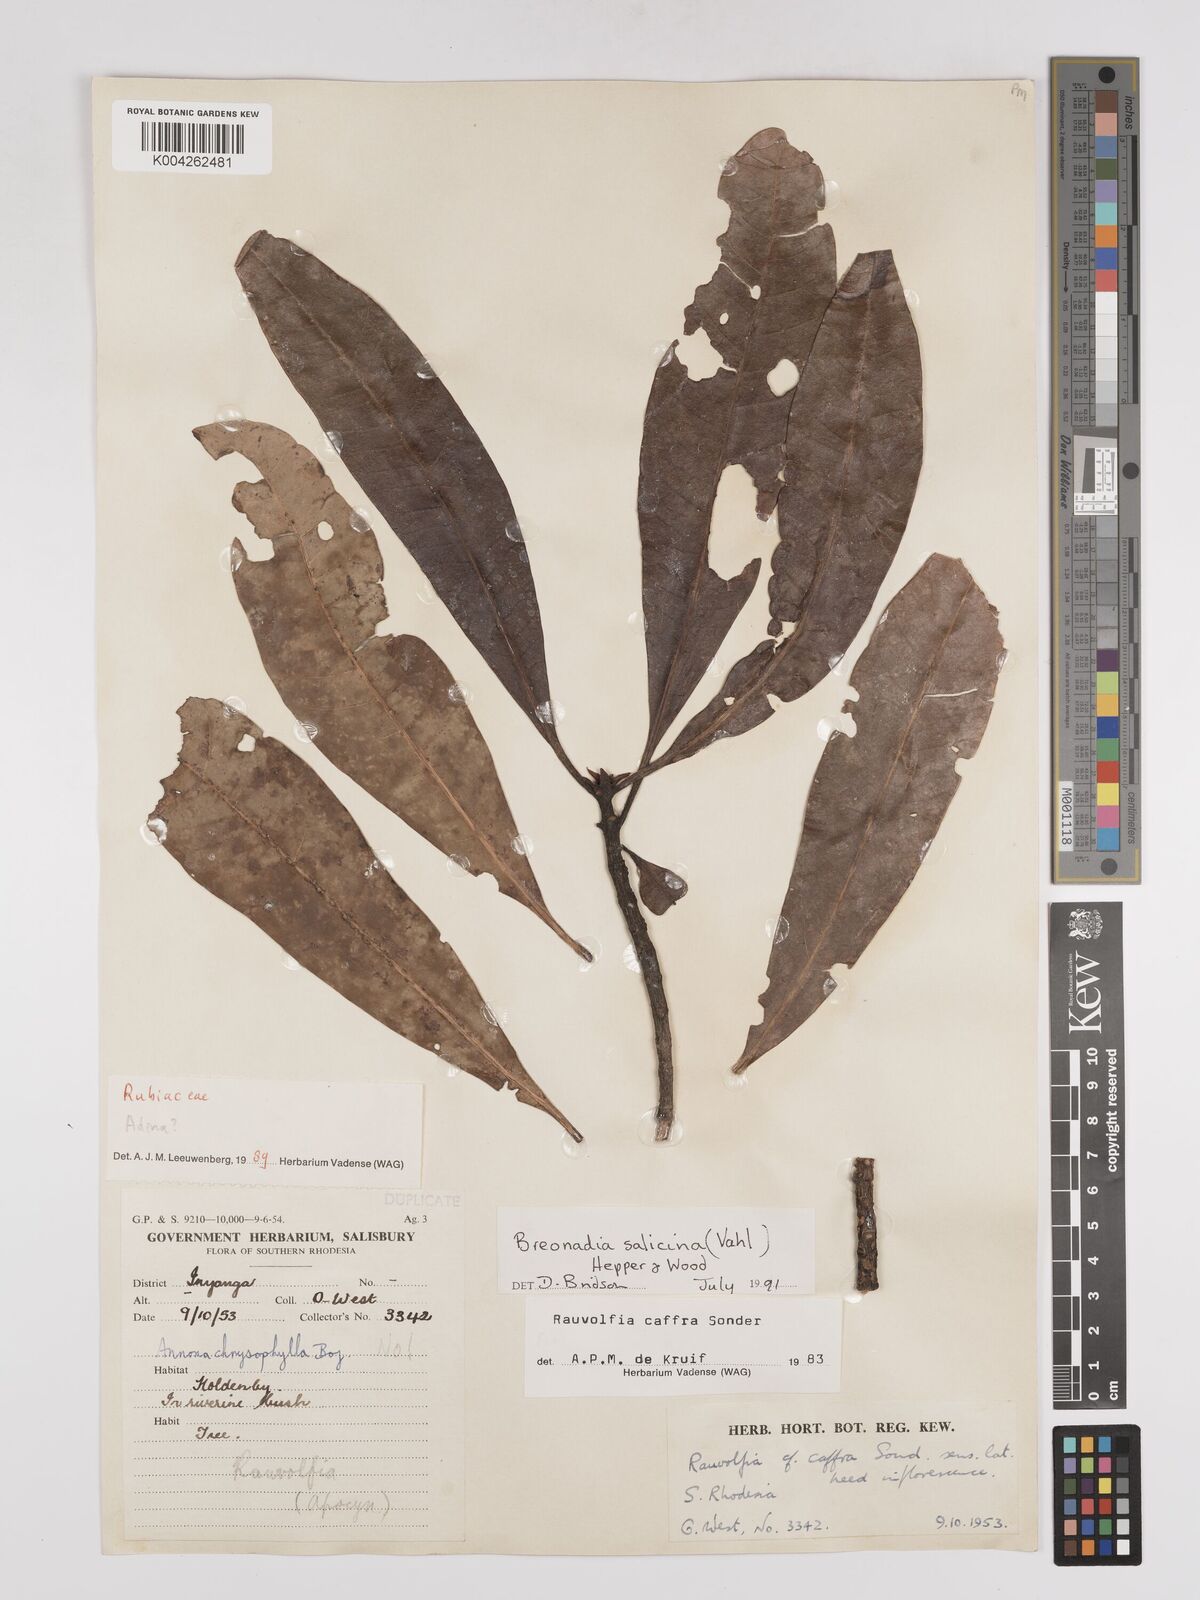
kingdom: Plantae
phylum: Tracheophyta
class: Magnoliopsida
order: Gentianales
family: Rubiaceae
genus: Breonadia
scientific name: Breonadia salicina
